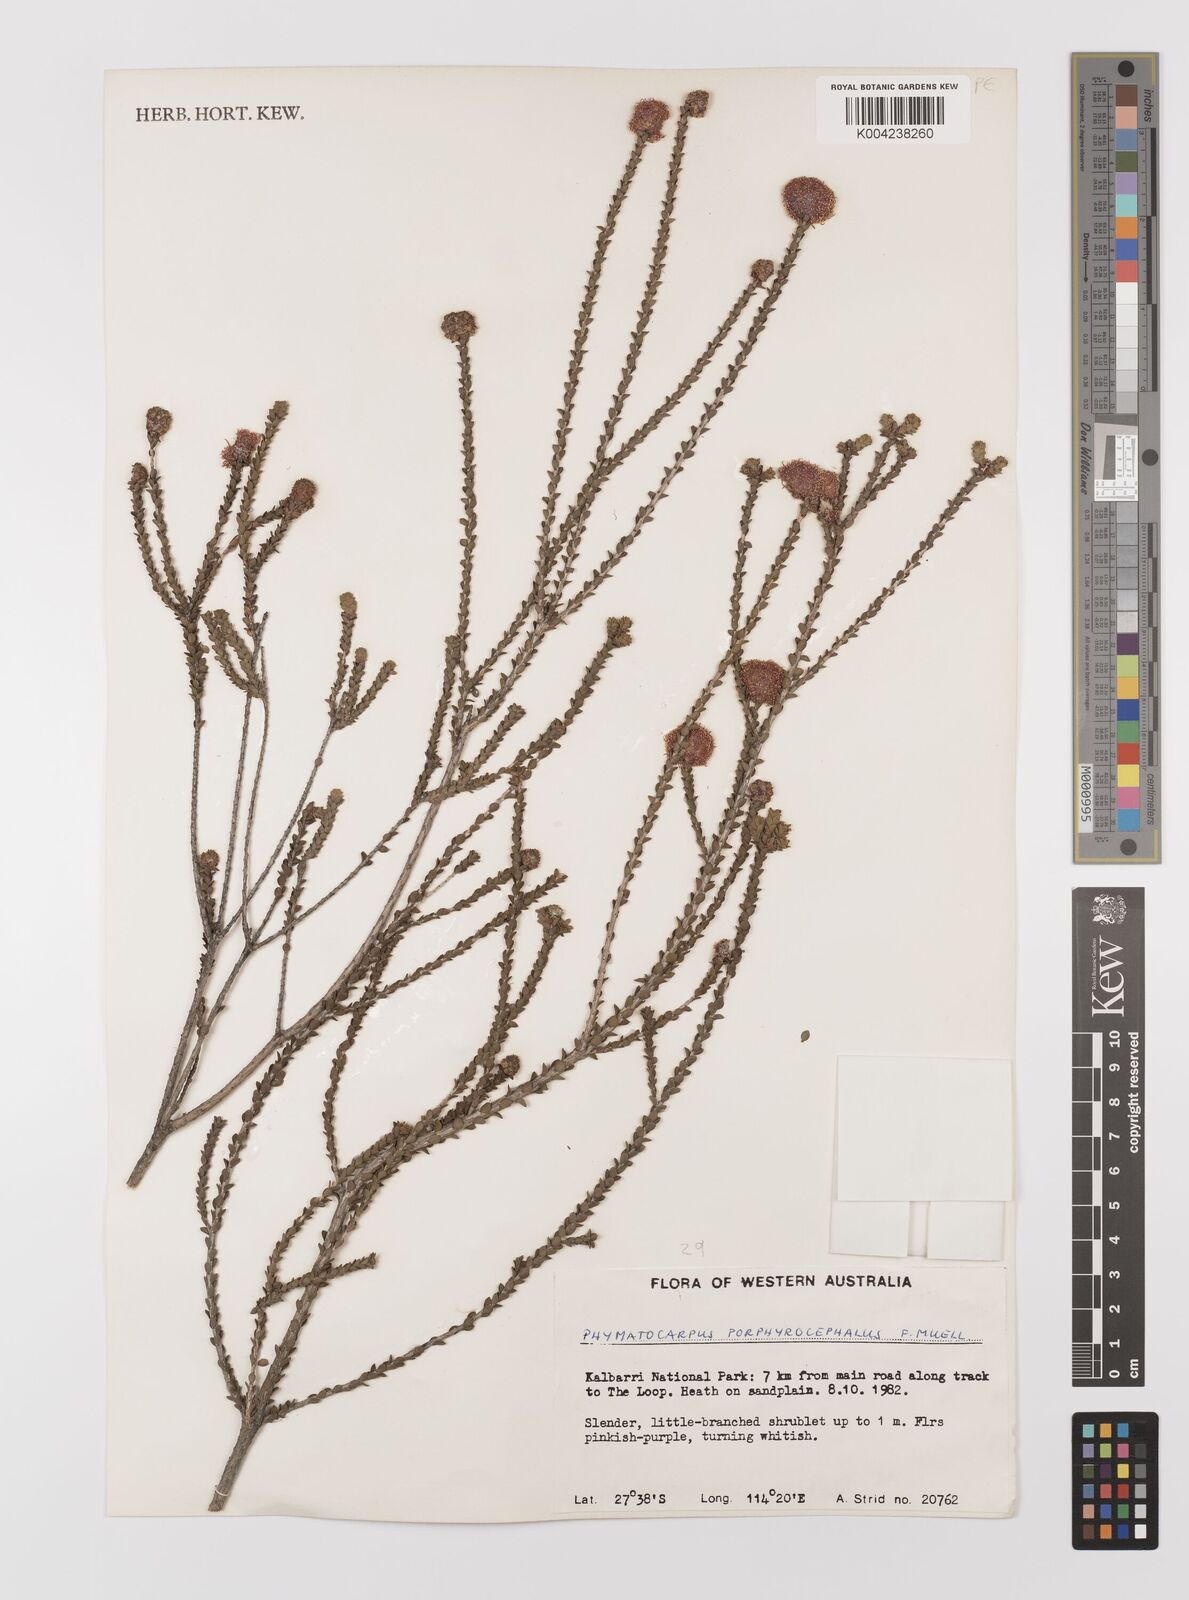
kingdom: Plantae
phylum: Tracheophyta
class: Magnoliopsida
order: Myrtales
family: Myrtaceae
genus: Melaleuca
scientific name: Melaleuca porphyrocephala
